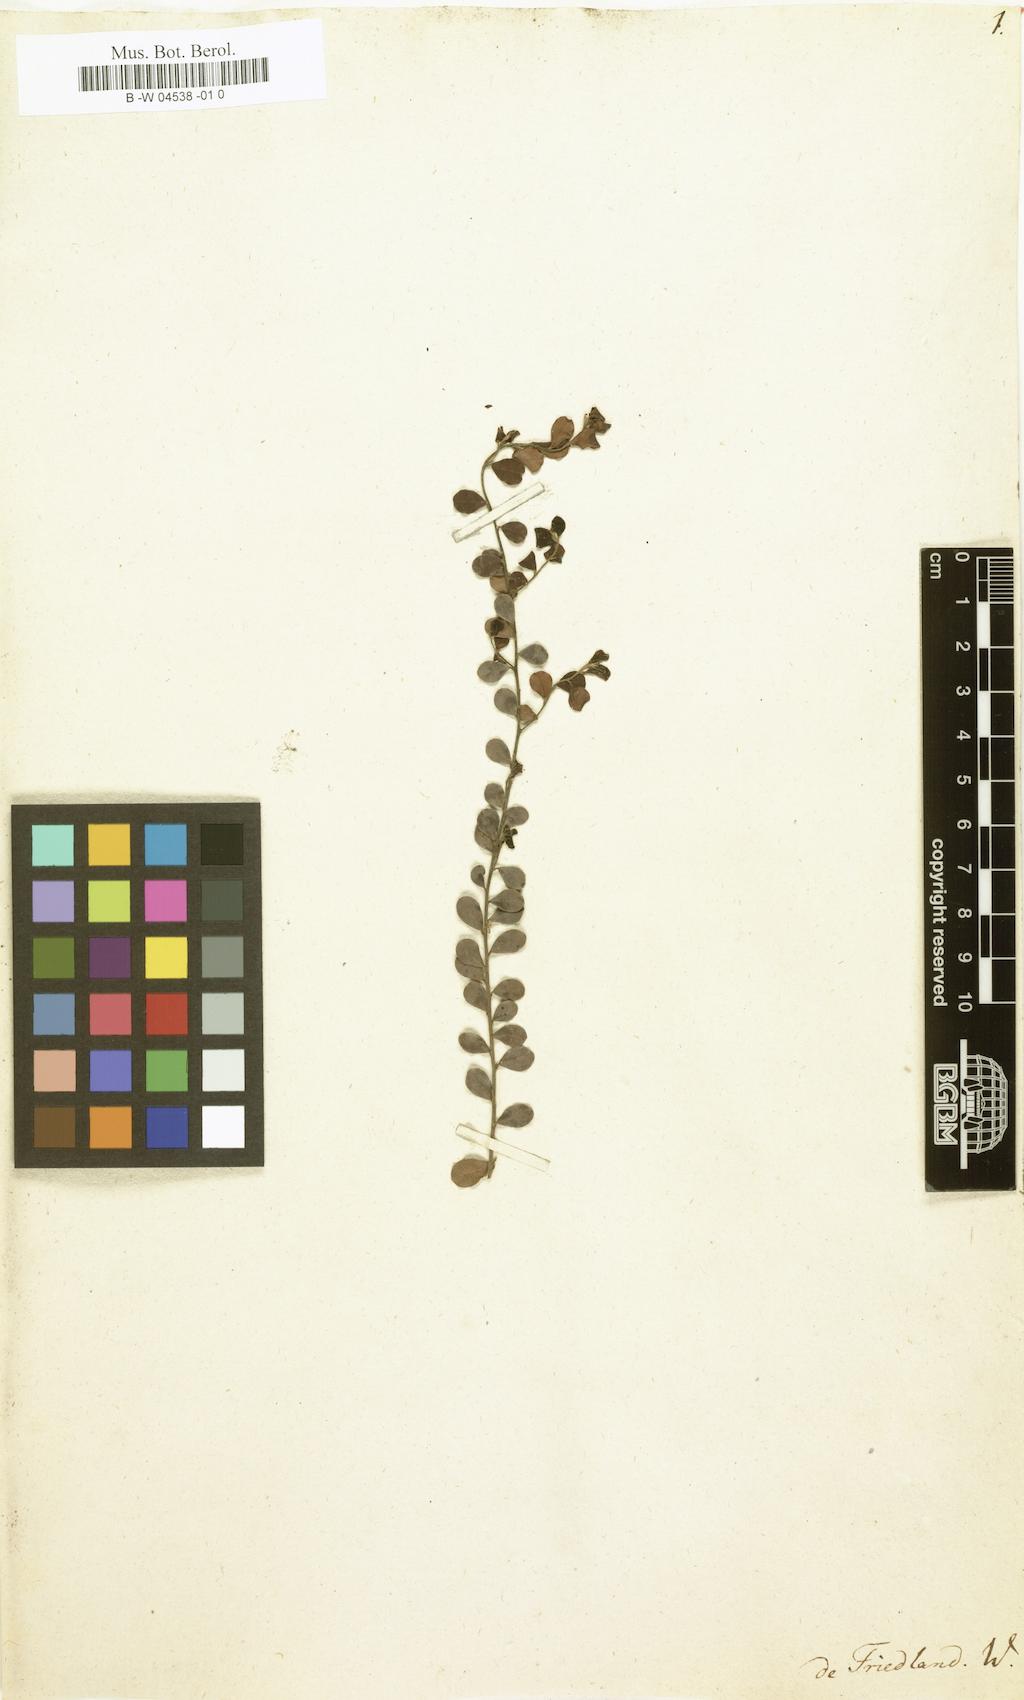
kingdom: Plantae
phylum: Tracheophyta
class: Magnoliopsida
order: Boraginales
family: Ehretiaceae
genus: Ehretia
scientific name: Ehretia
